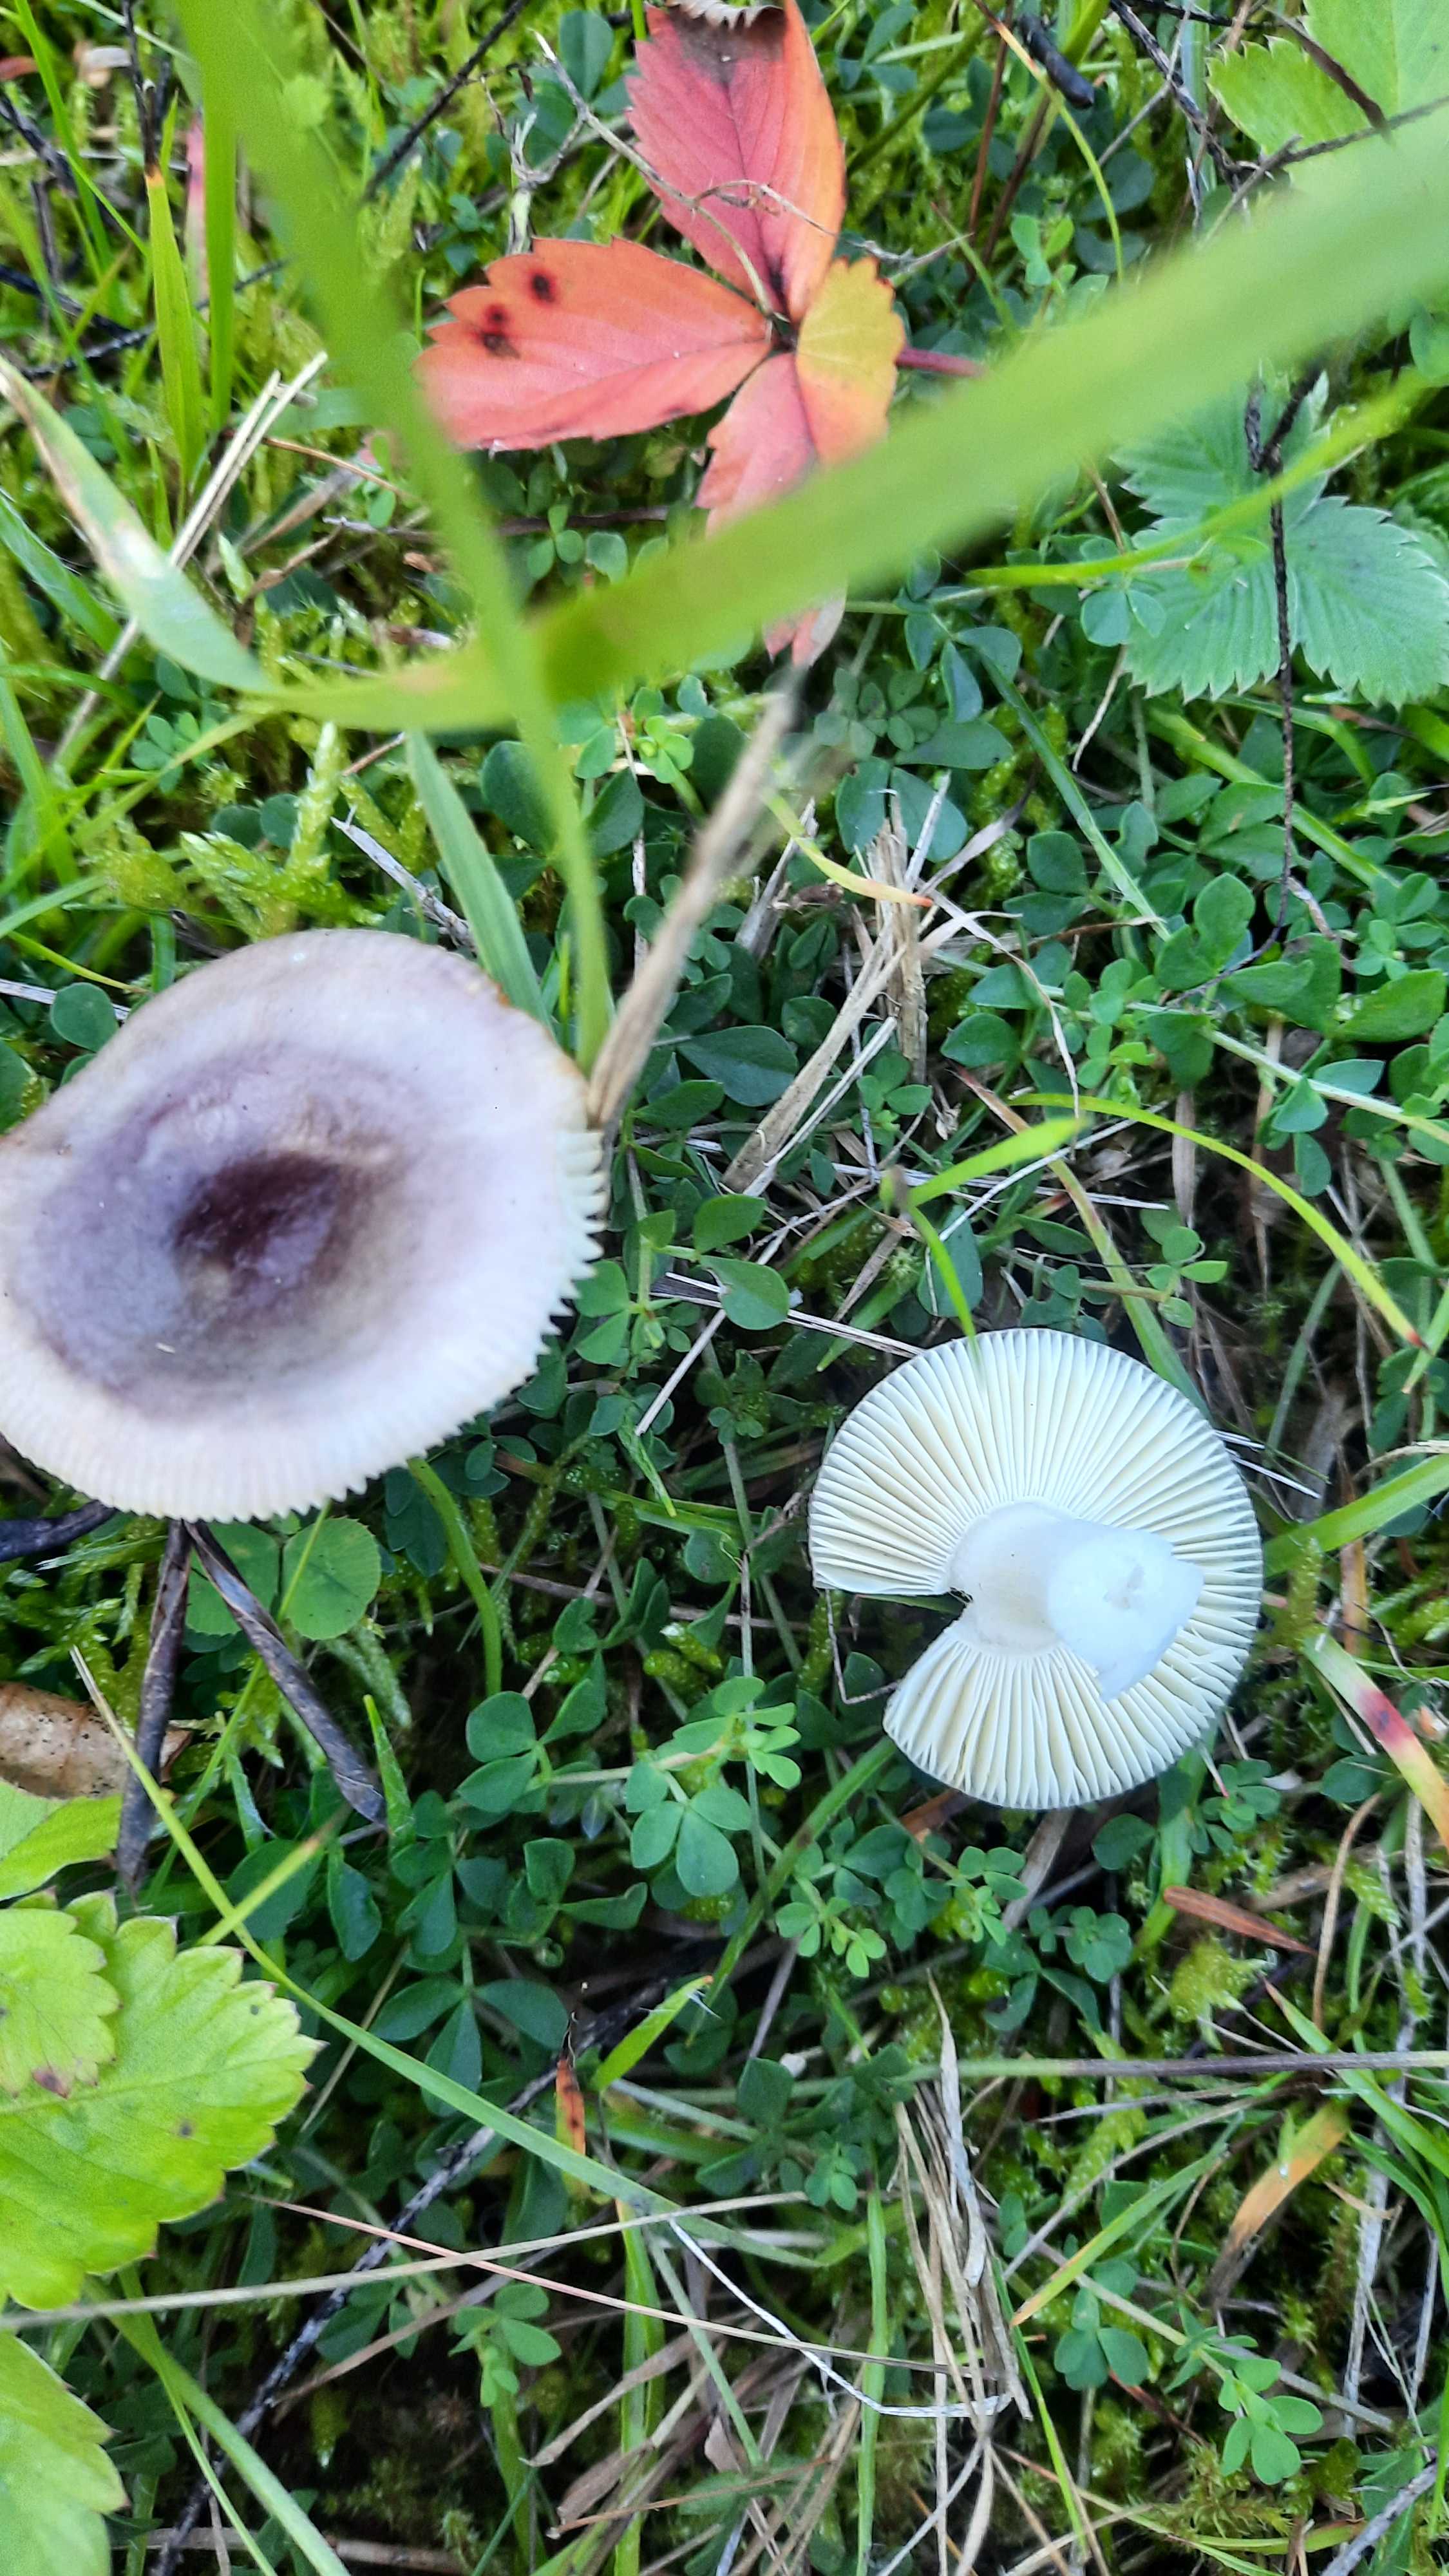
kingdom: Fungi
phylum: Basidiomycota
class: Agaricomycetes
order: Russulales
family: Russulaceae
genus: Russula
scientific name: Russula
